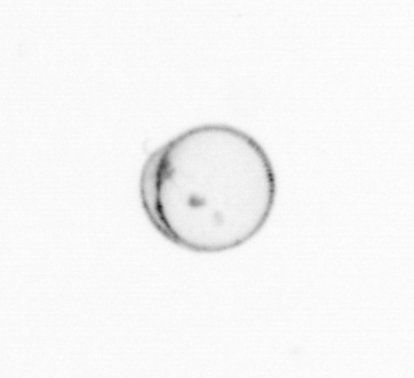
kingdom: Chromista
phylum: Myzozoa
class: Dinophyceae
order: Noctilucales
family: Noctilucaceae
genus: Noctiluca
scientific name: Noctiluca scintillans
